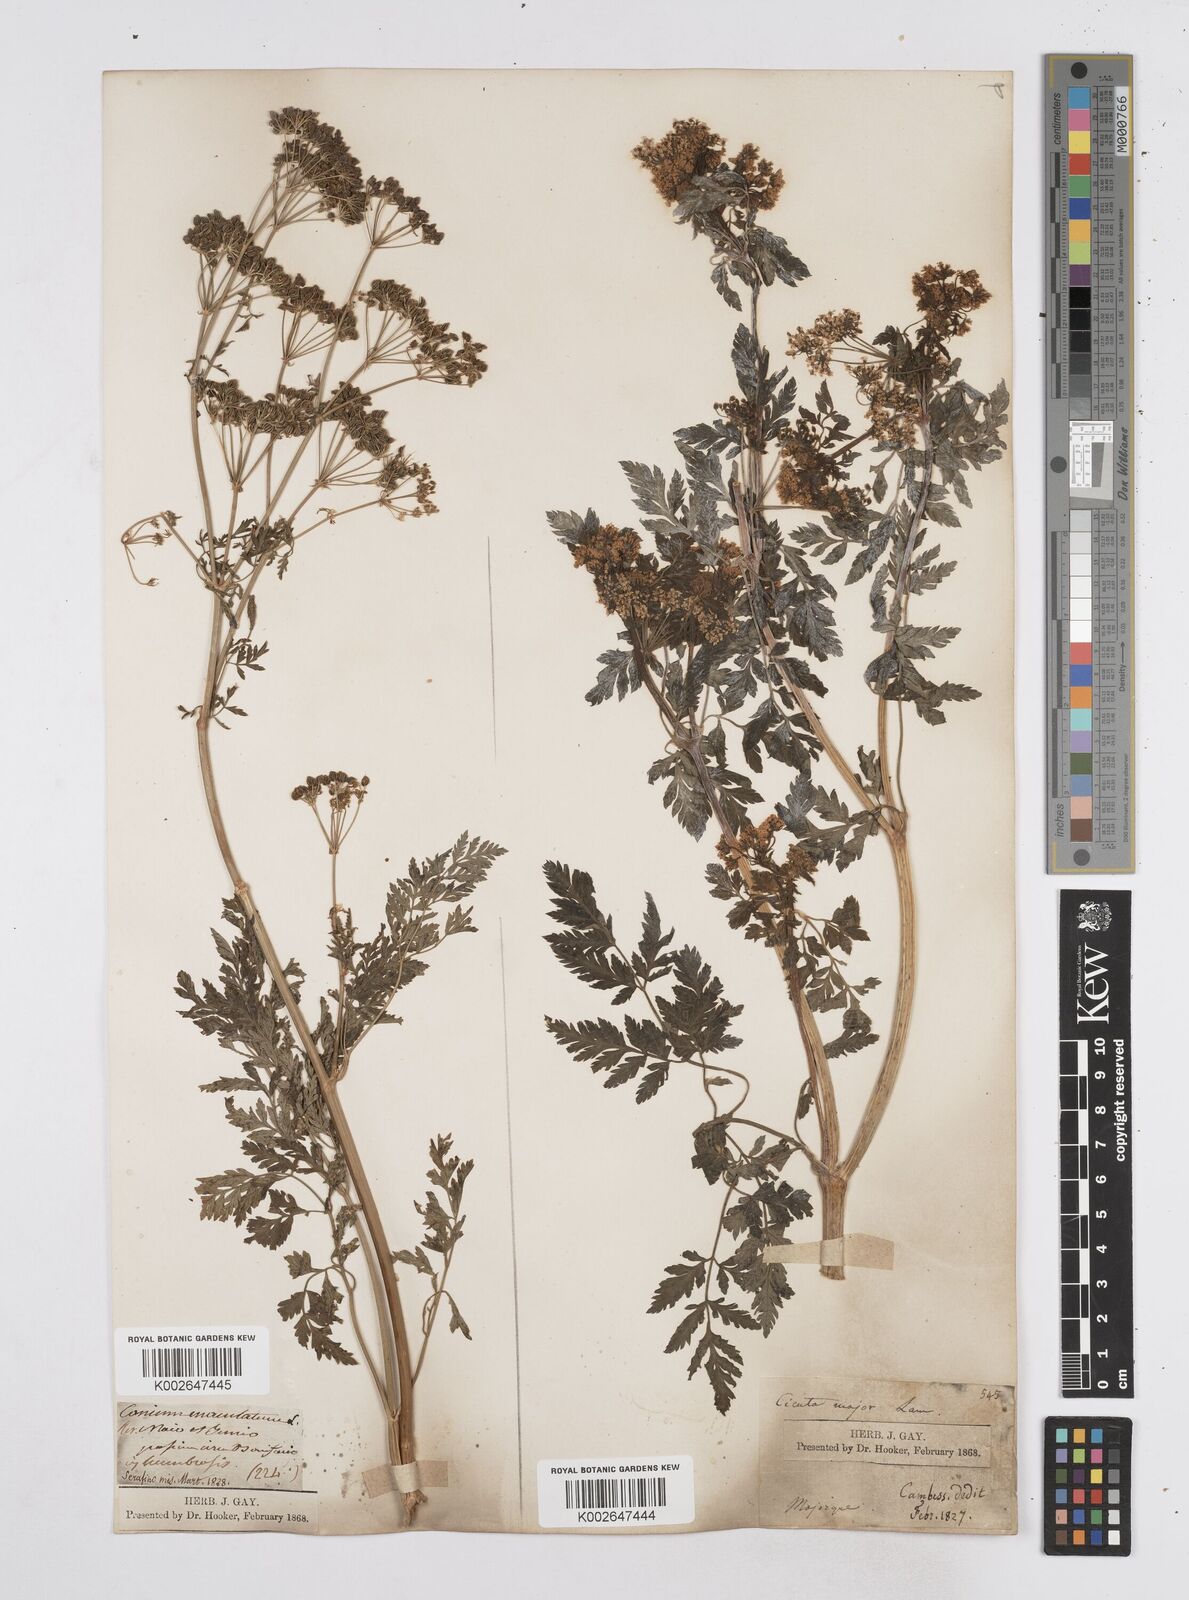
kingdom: Plantae
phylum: Tracheophyta
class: Magnoliopsida
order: Apiales
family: Apiaceae
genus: Conium
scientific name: Conium maculatum
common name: Hemlock
